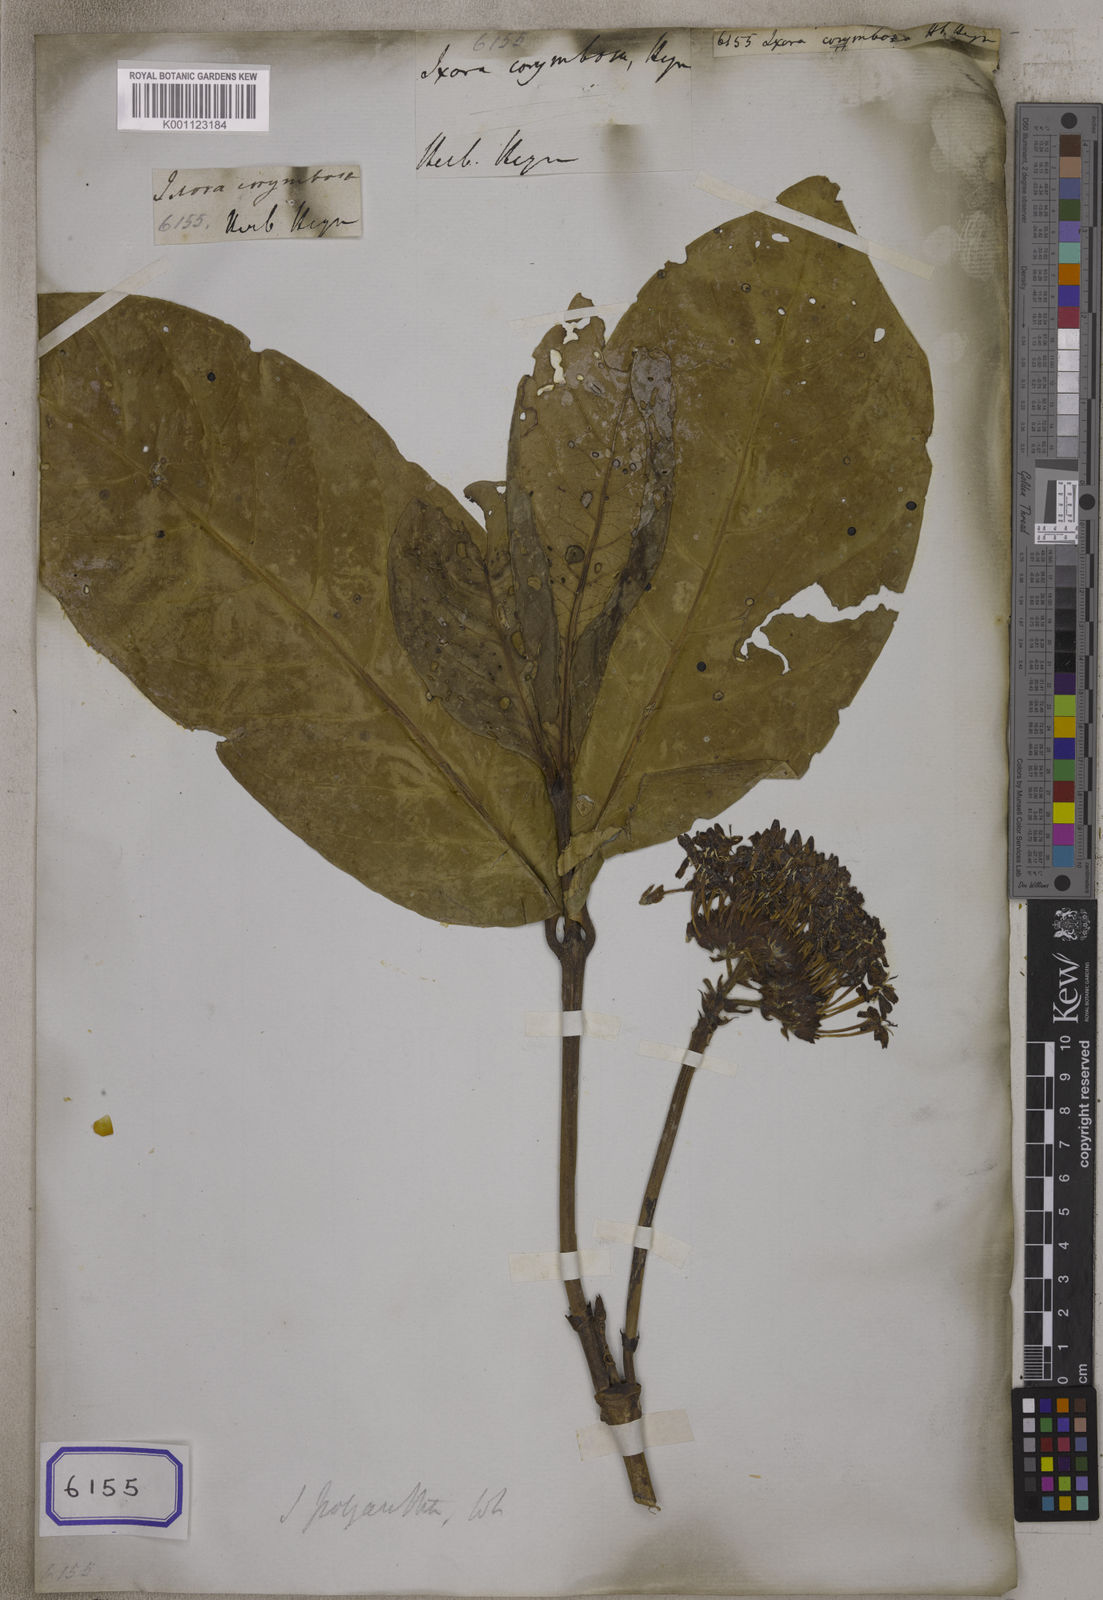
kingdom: Plantae
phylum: Tracheophyta
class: Magnoliopsida
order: Gentianales
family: Rubiaceae
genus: Ixora
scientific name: Ixora
